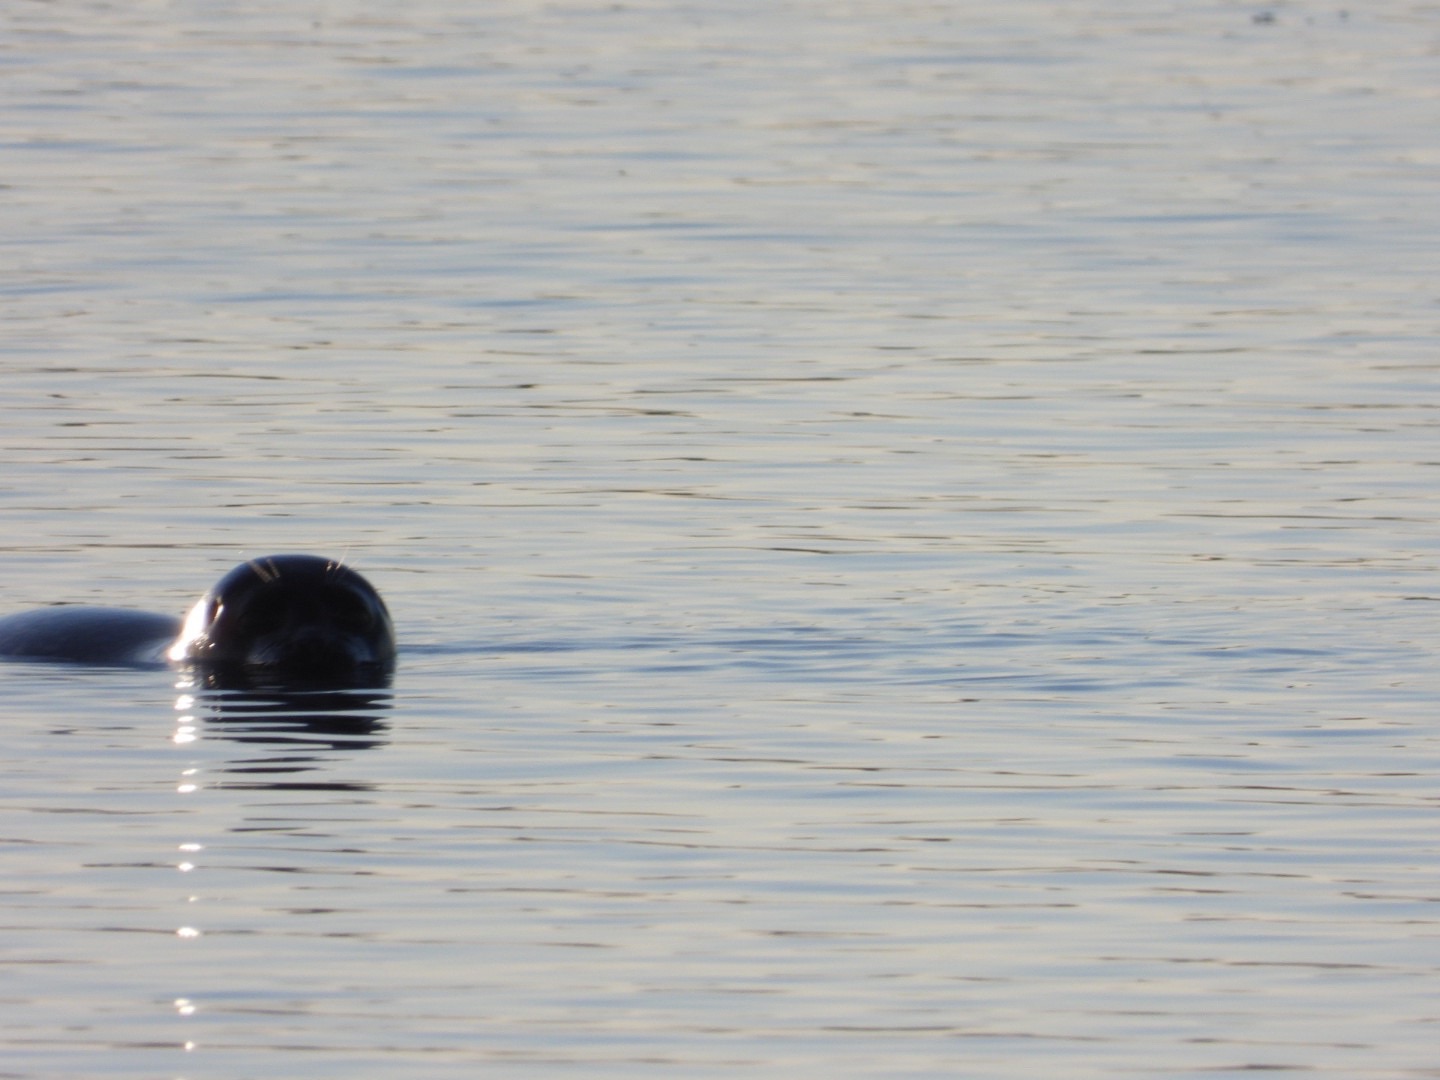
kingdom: Animalia
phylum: Chordata
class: Mammalia
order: Carnivora
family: Phocidae
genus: Phoca
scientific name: Phoca vitulina
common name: Spættet sæl
